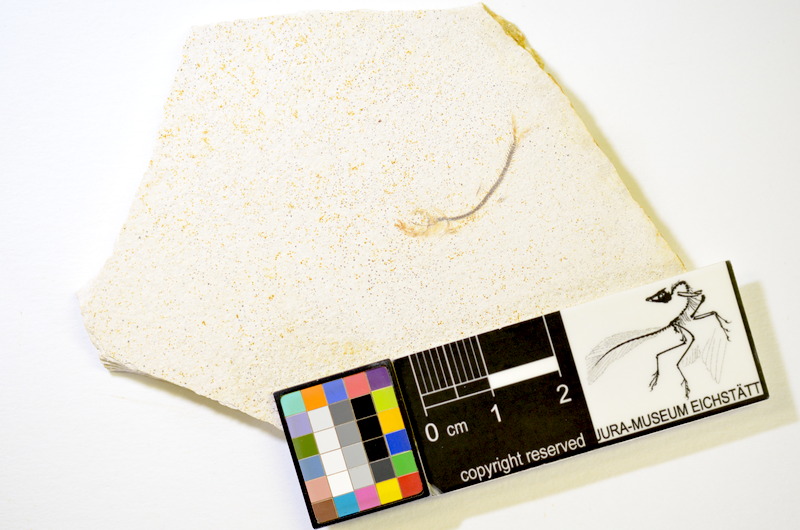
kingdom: Animalia
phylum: Chordata
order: Salmoniformes
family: Orthogonikleithridae
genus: Orthogonikleithrus
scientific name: Orthogonikleithrus hoelli
